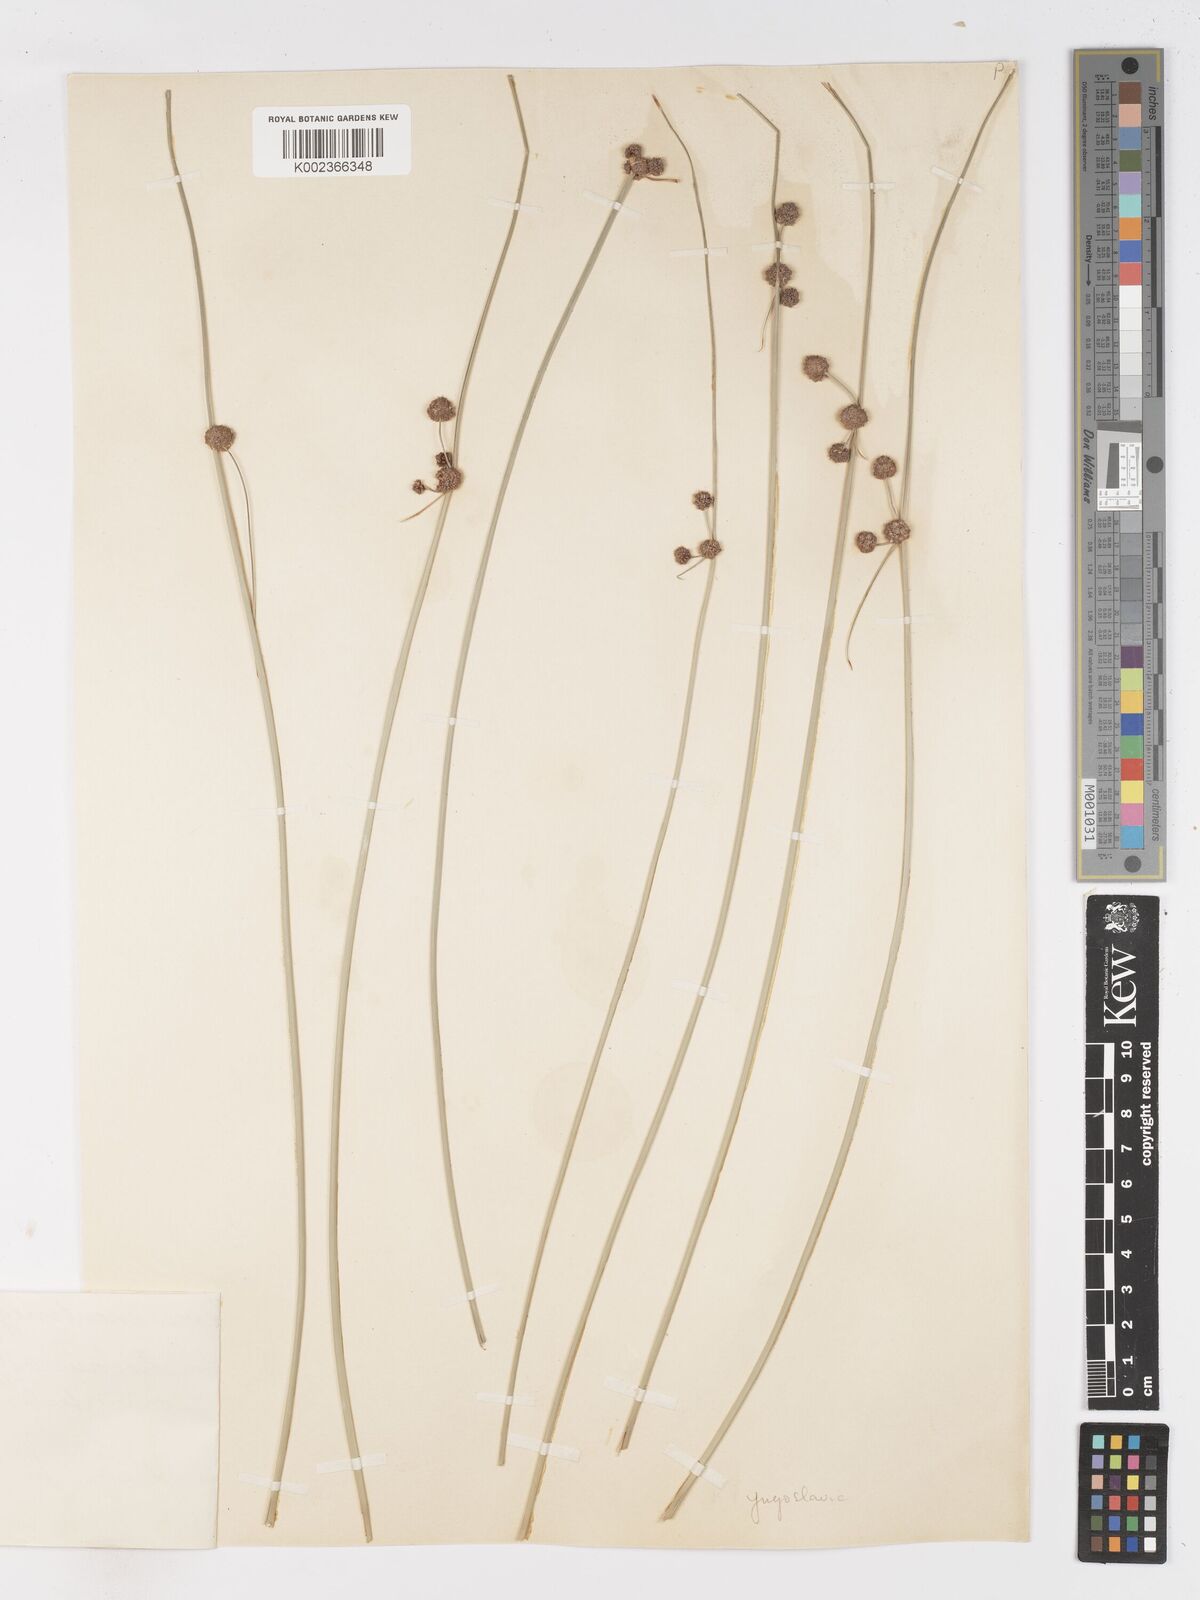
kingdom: Plantae
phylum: Tracheophyta
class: Liliopsida
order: Poales
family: Cyperaceae
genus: Scirpoides
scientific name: Scirpoides holoschoenus
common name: Round-headed club-rush
